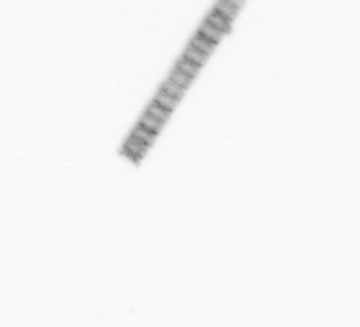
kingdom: Chromista
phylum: Ochrophyta
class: Bacillariophyceae
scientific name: Bacillariophyceae
